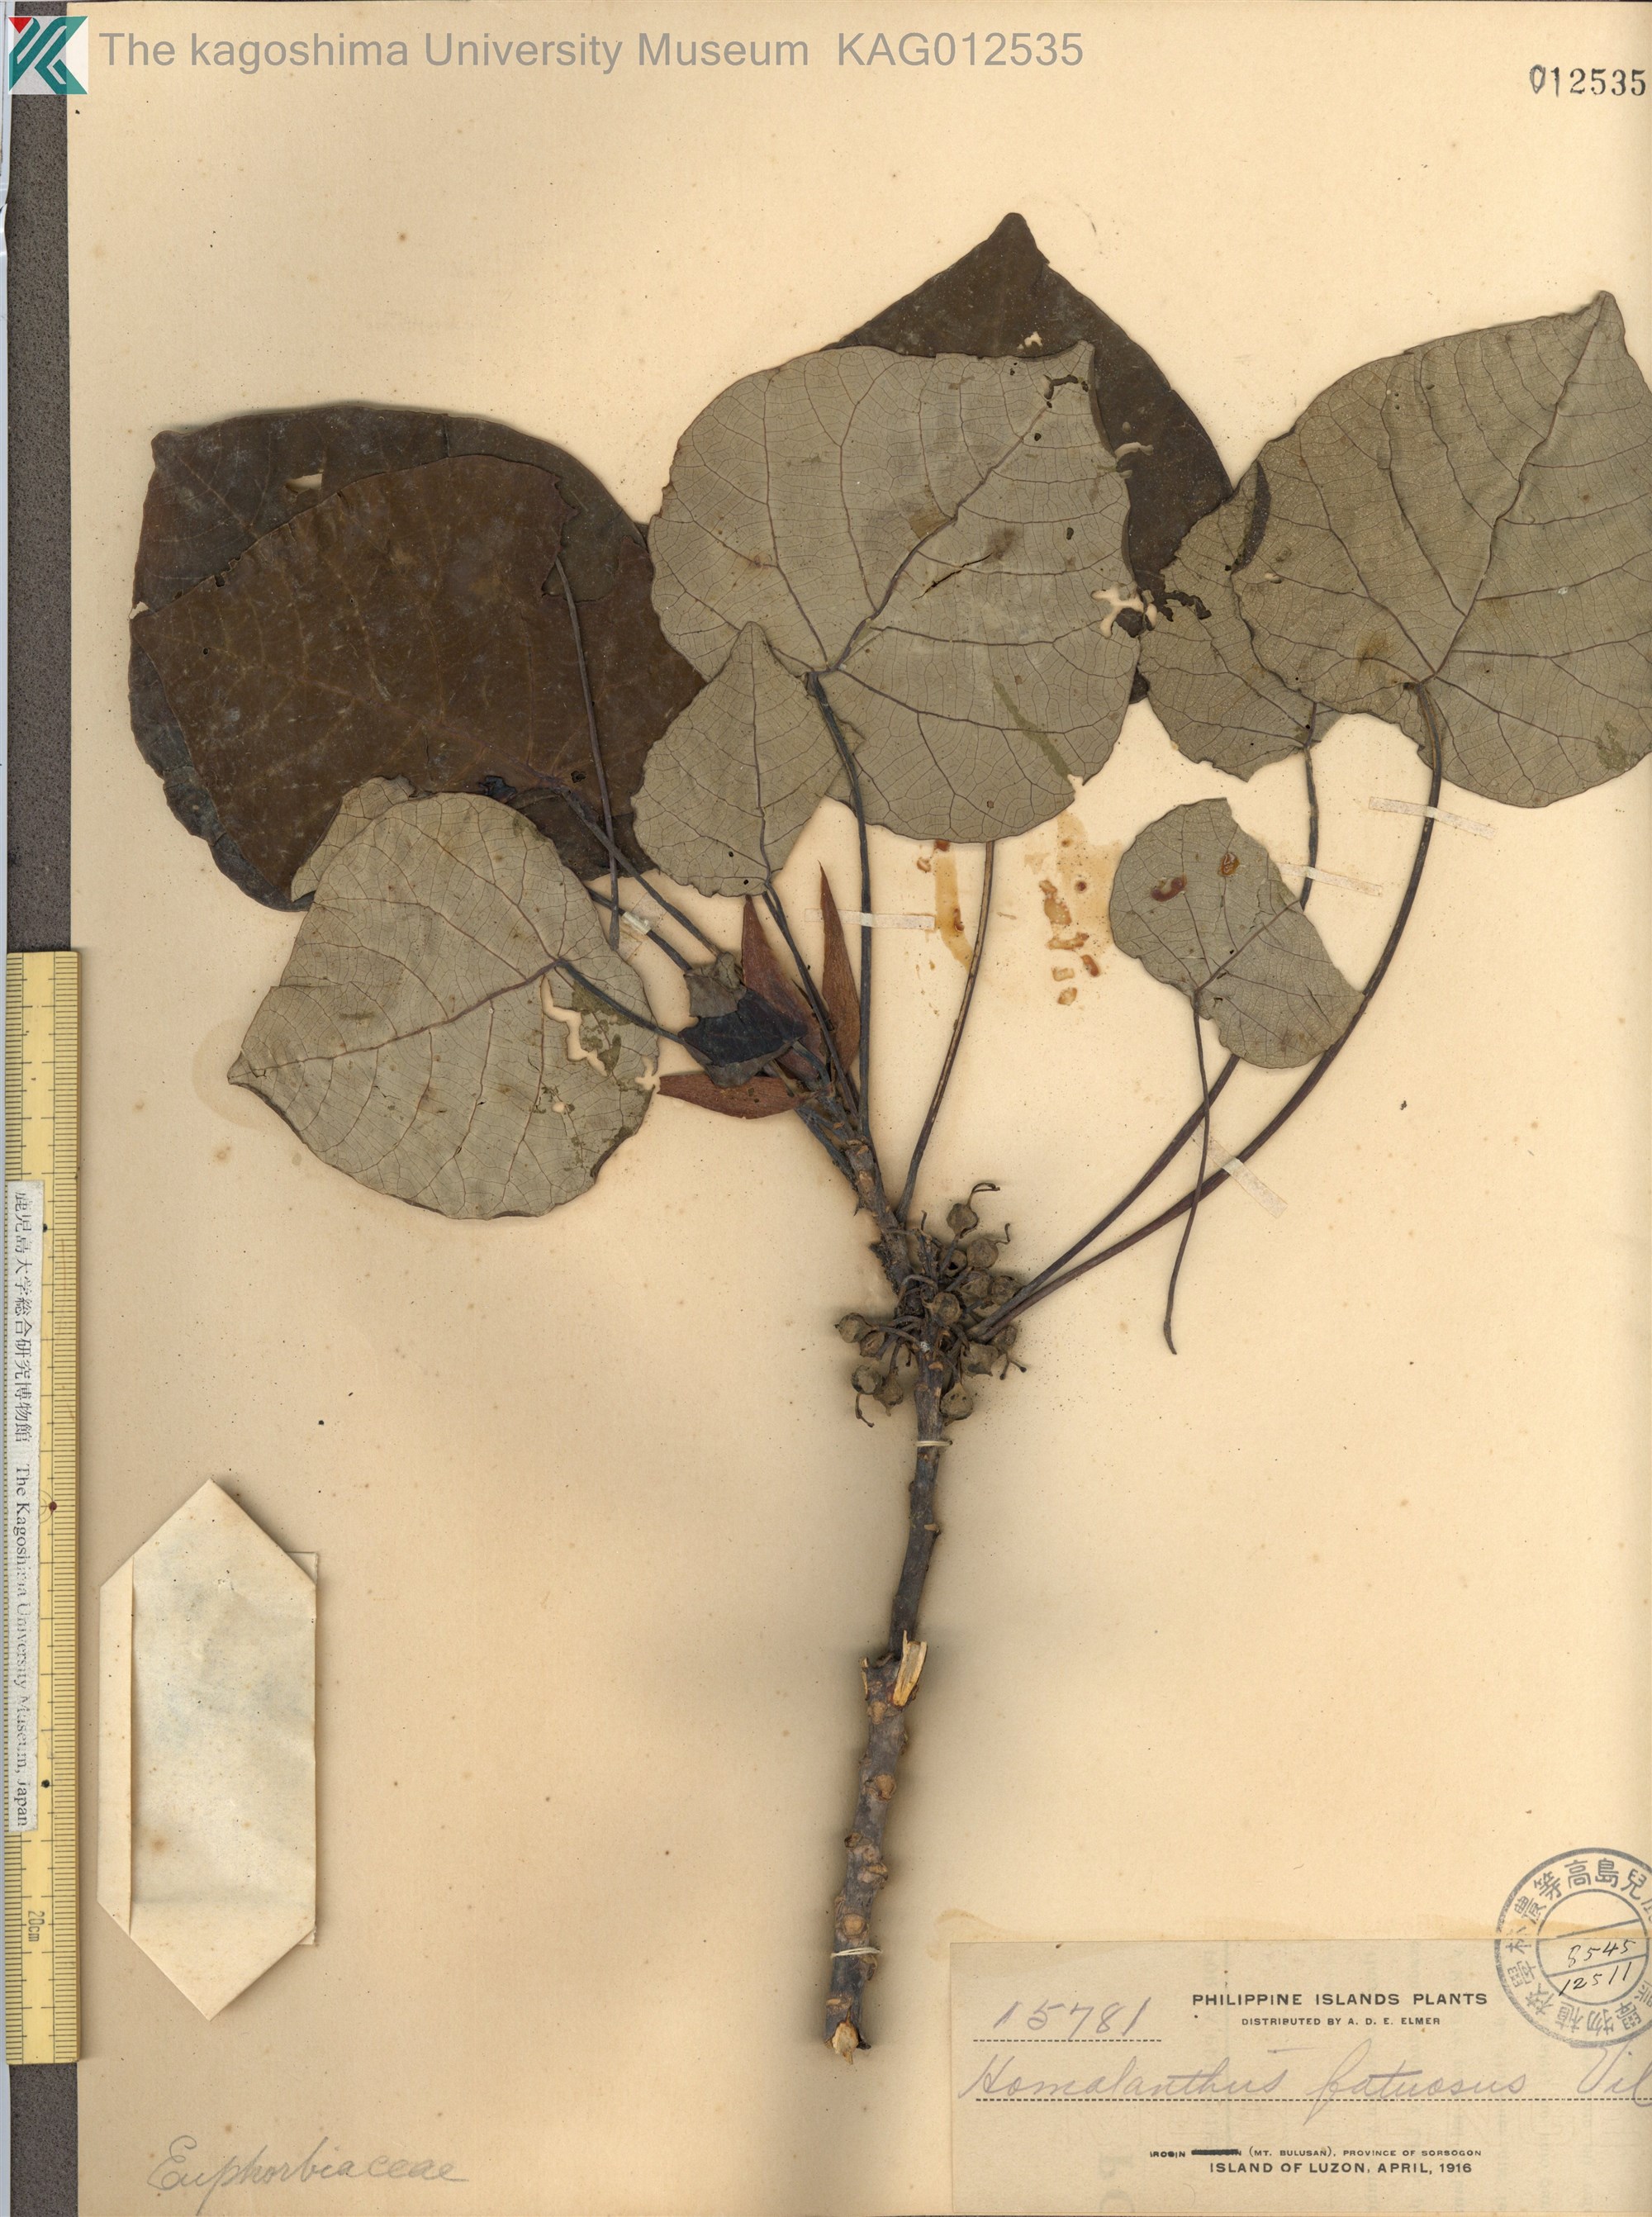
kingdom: Plantae
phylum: Tracheophyta
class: Magnoliopsida
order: Malpighiales
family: Euphorbiaceae
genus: Homalanthus
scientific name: Homalanthus fastuosus
